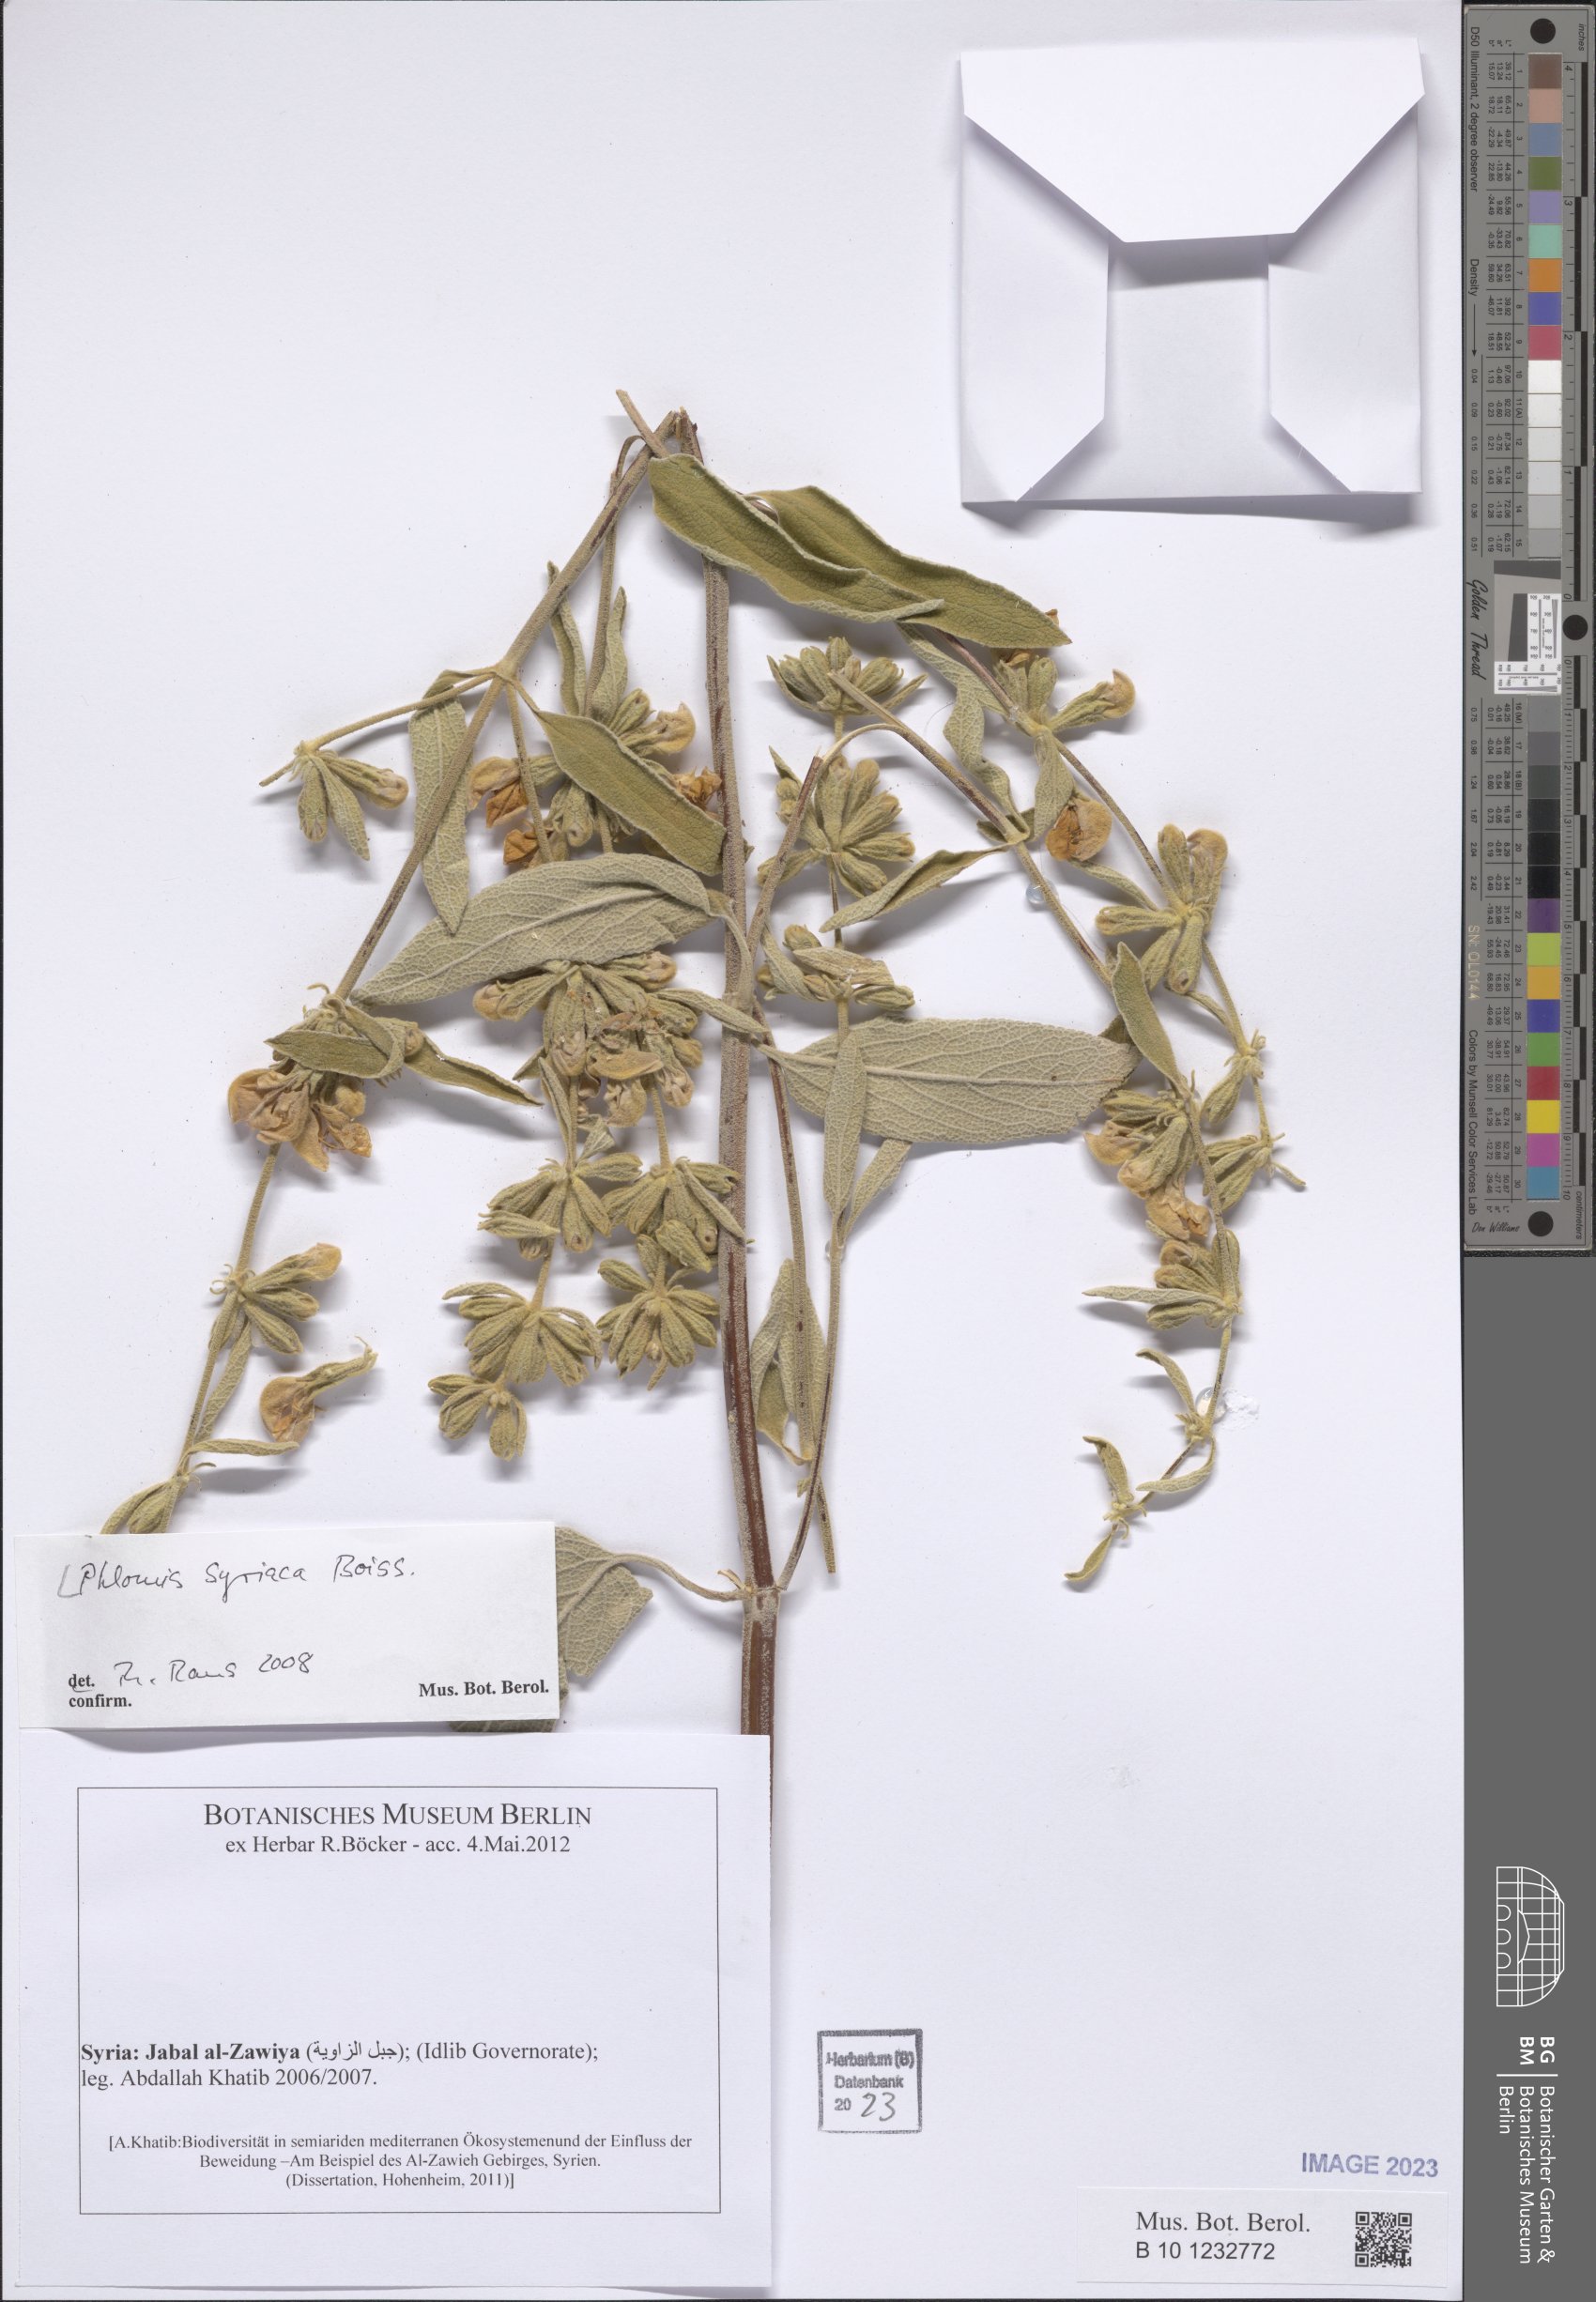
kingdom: Plantae
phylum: Tracheophyta
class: Magnoliopsida
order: Lamiales
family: Lamiaceae
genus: Phlomis
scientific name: Phlomis syriaca
